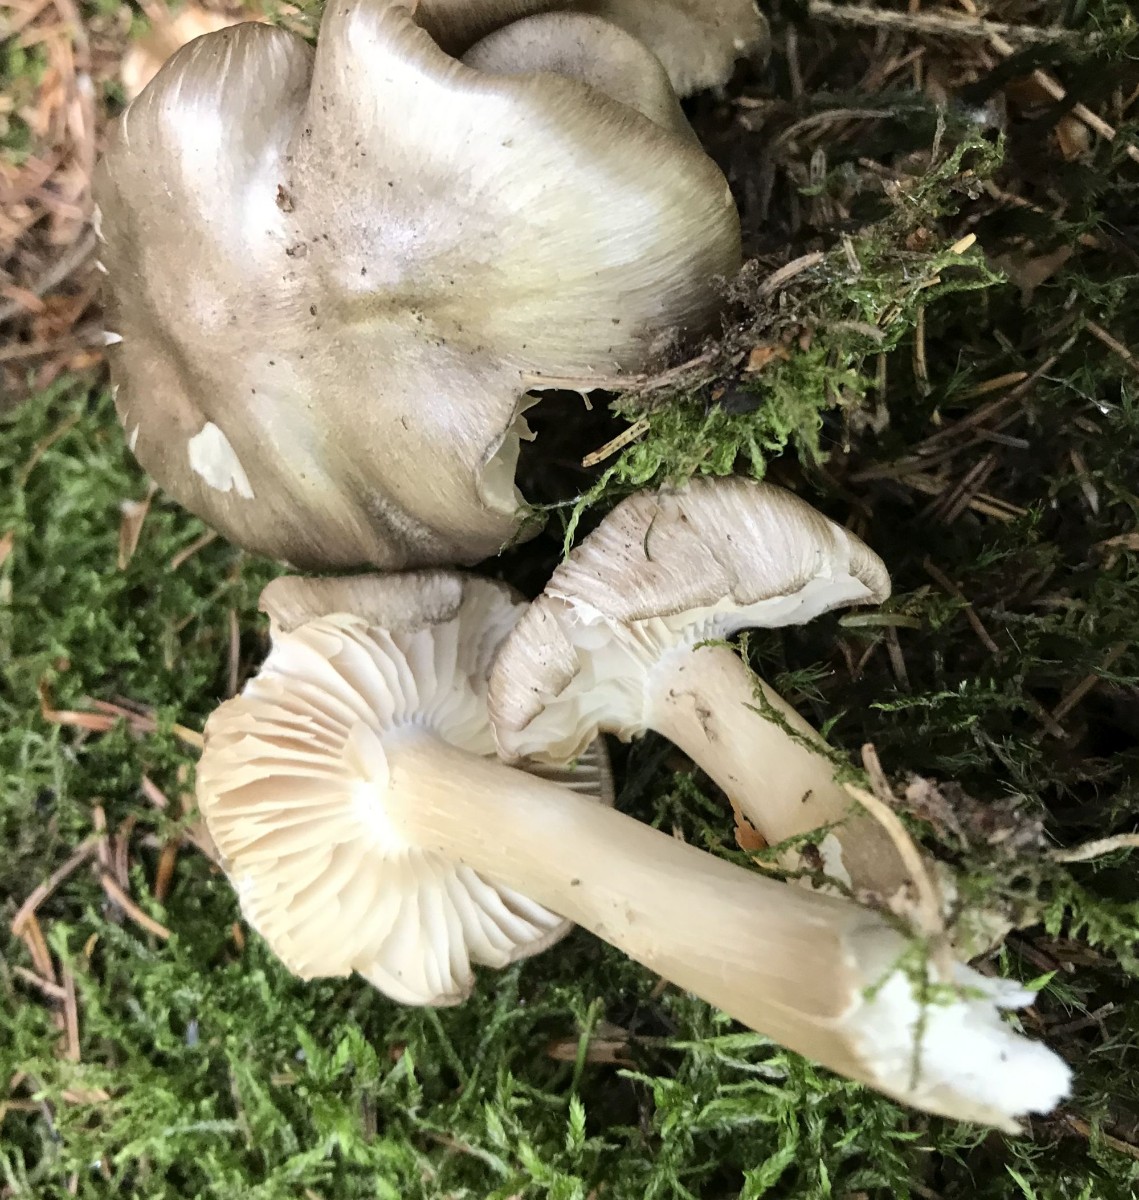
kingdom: Fungi
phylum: Basidiomycota
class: Agaricomycetes
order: Agaricales
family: Tricholomataceae
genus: Megacollybia
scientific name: Megacollybia platyphylla
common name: bredbladet væbnerhat
